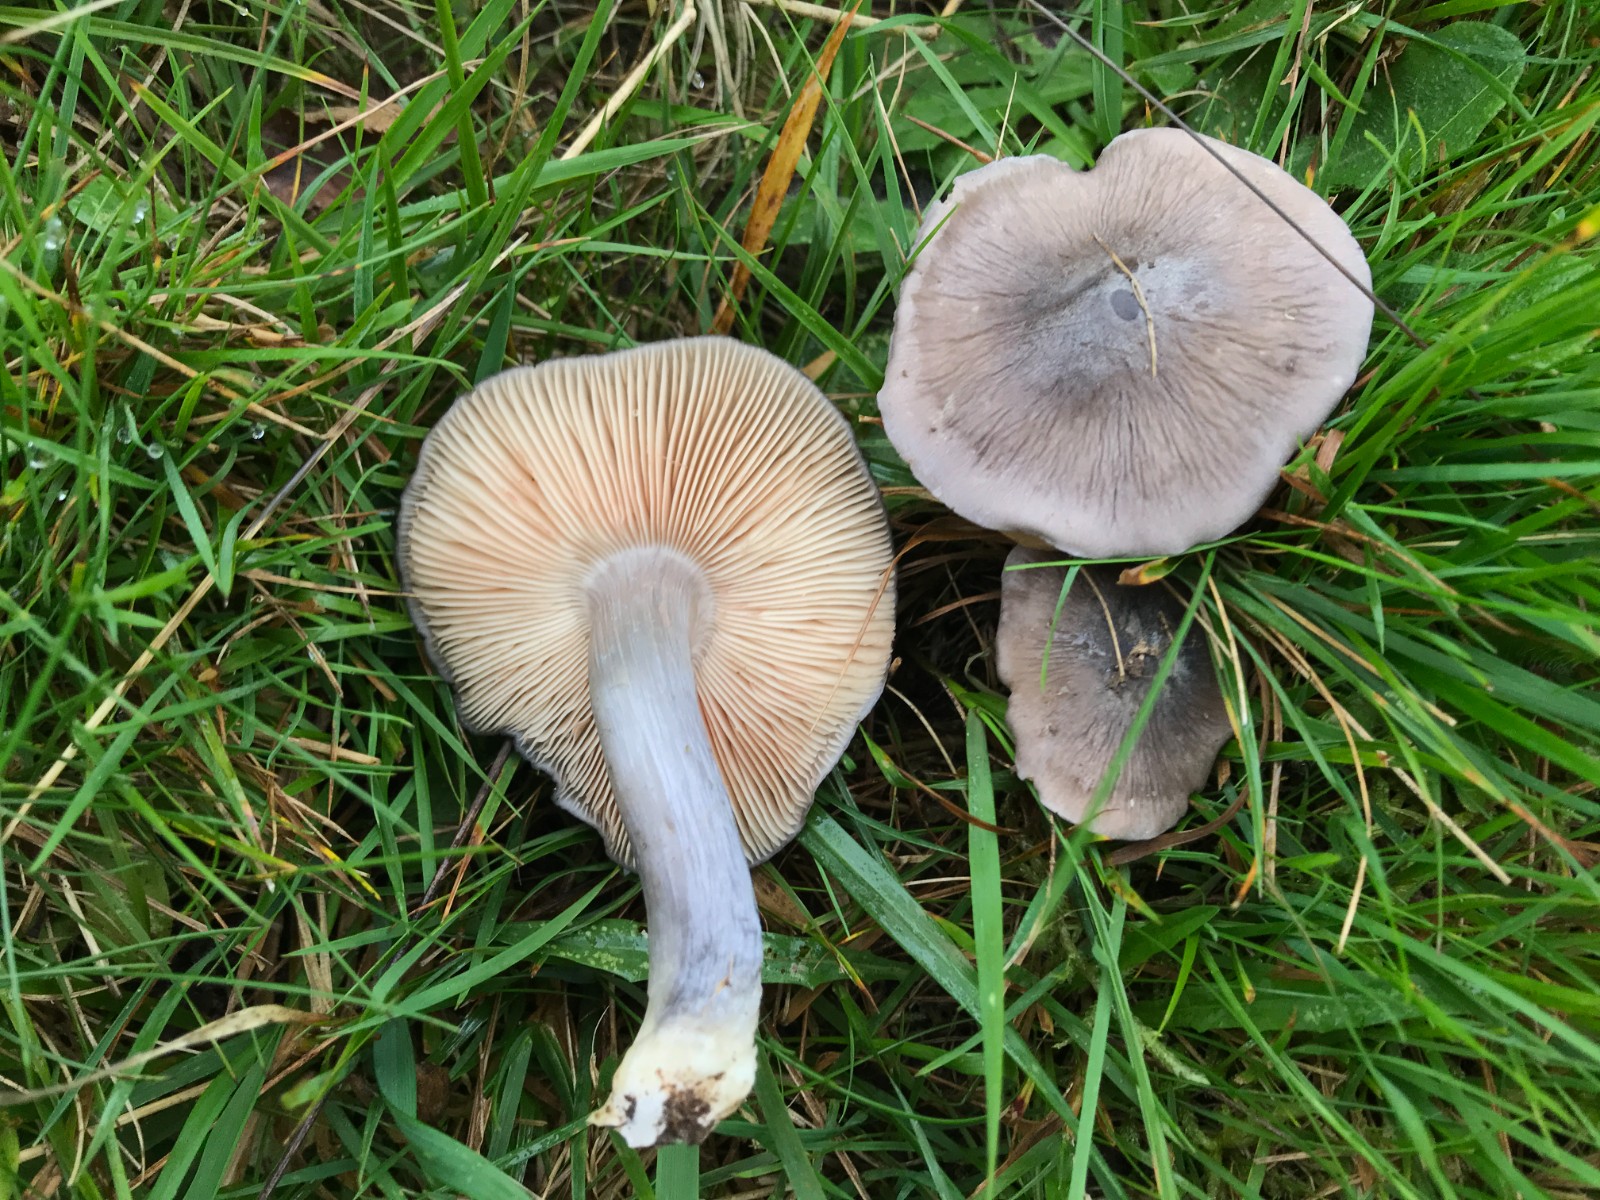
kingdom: Fungi
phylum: Basidiomycota
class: Agaricomycetes
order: Agaricales
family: Entolomataceae
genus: Entoloma
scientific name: Entoloma madidum
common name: indigo-rødblad
